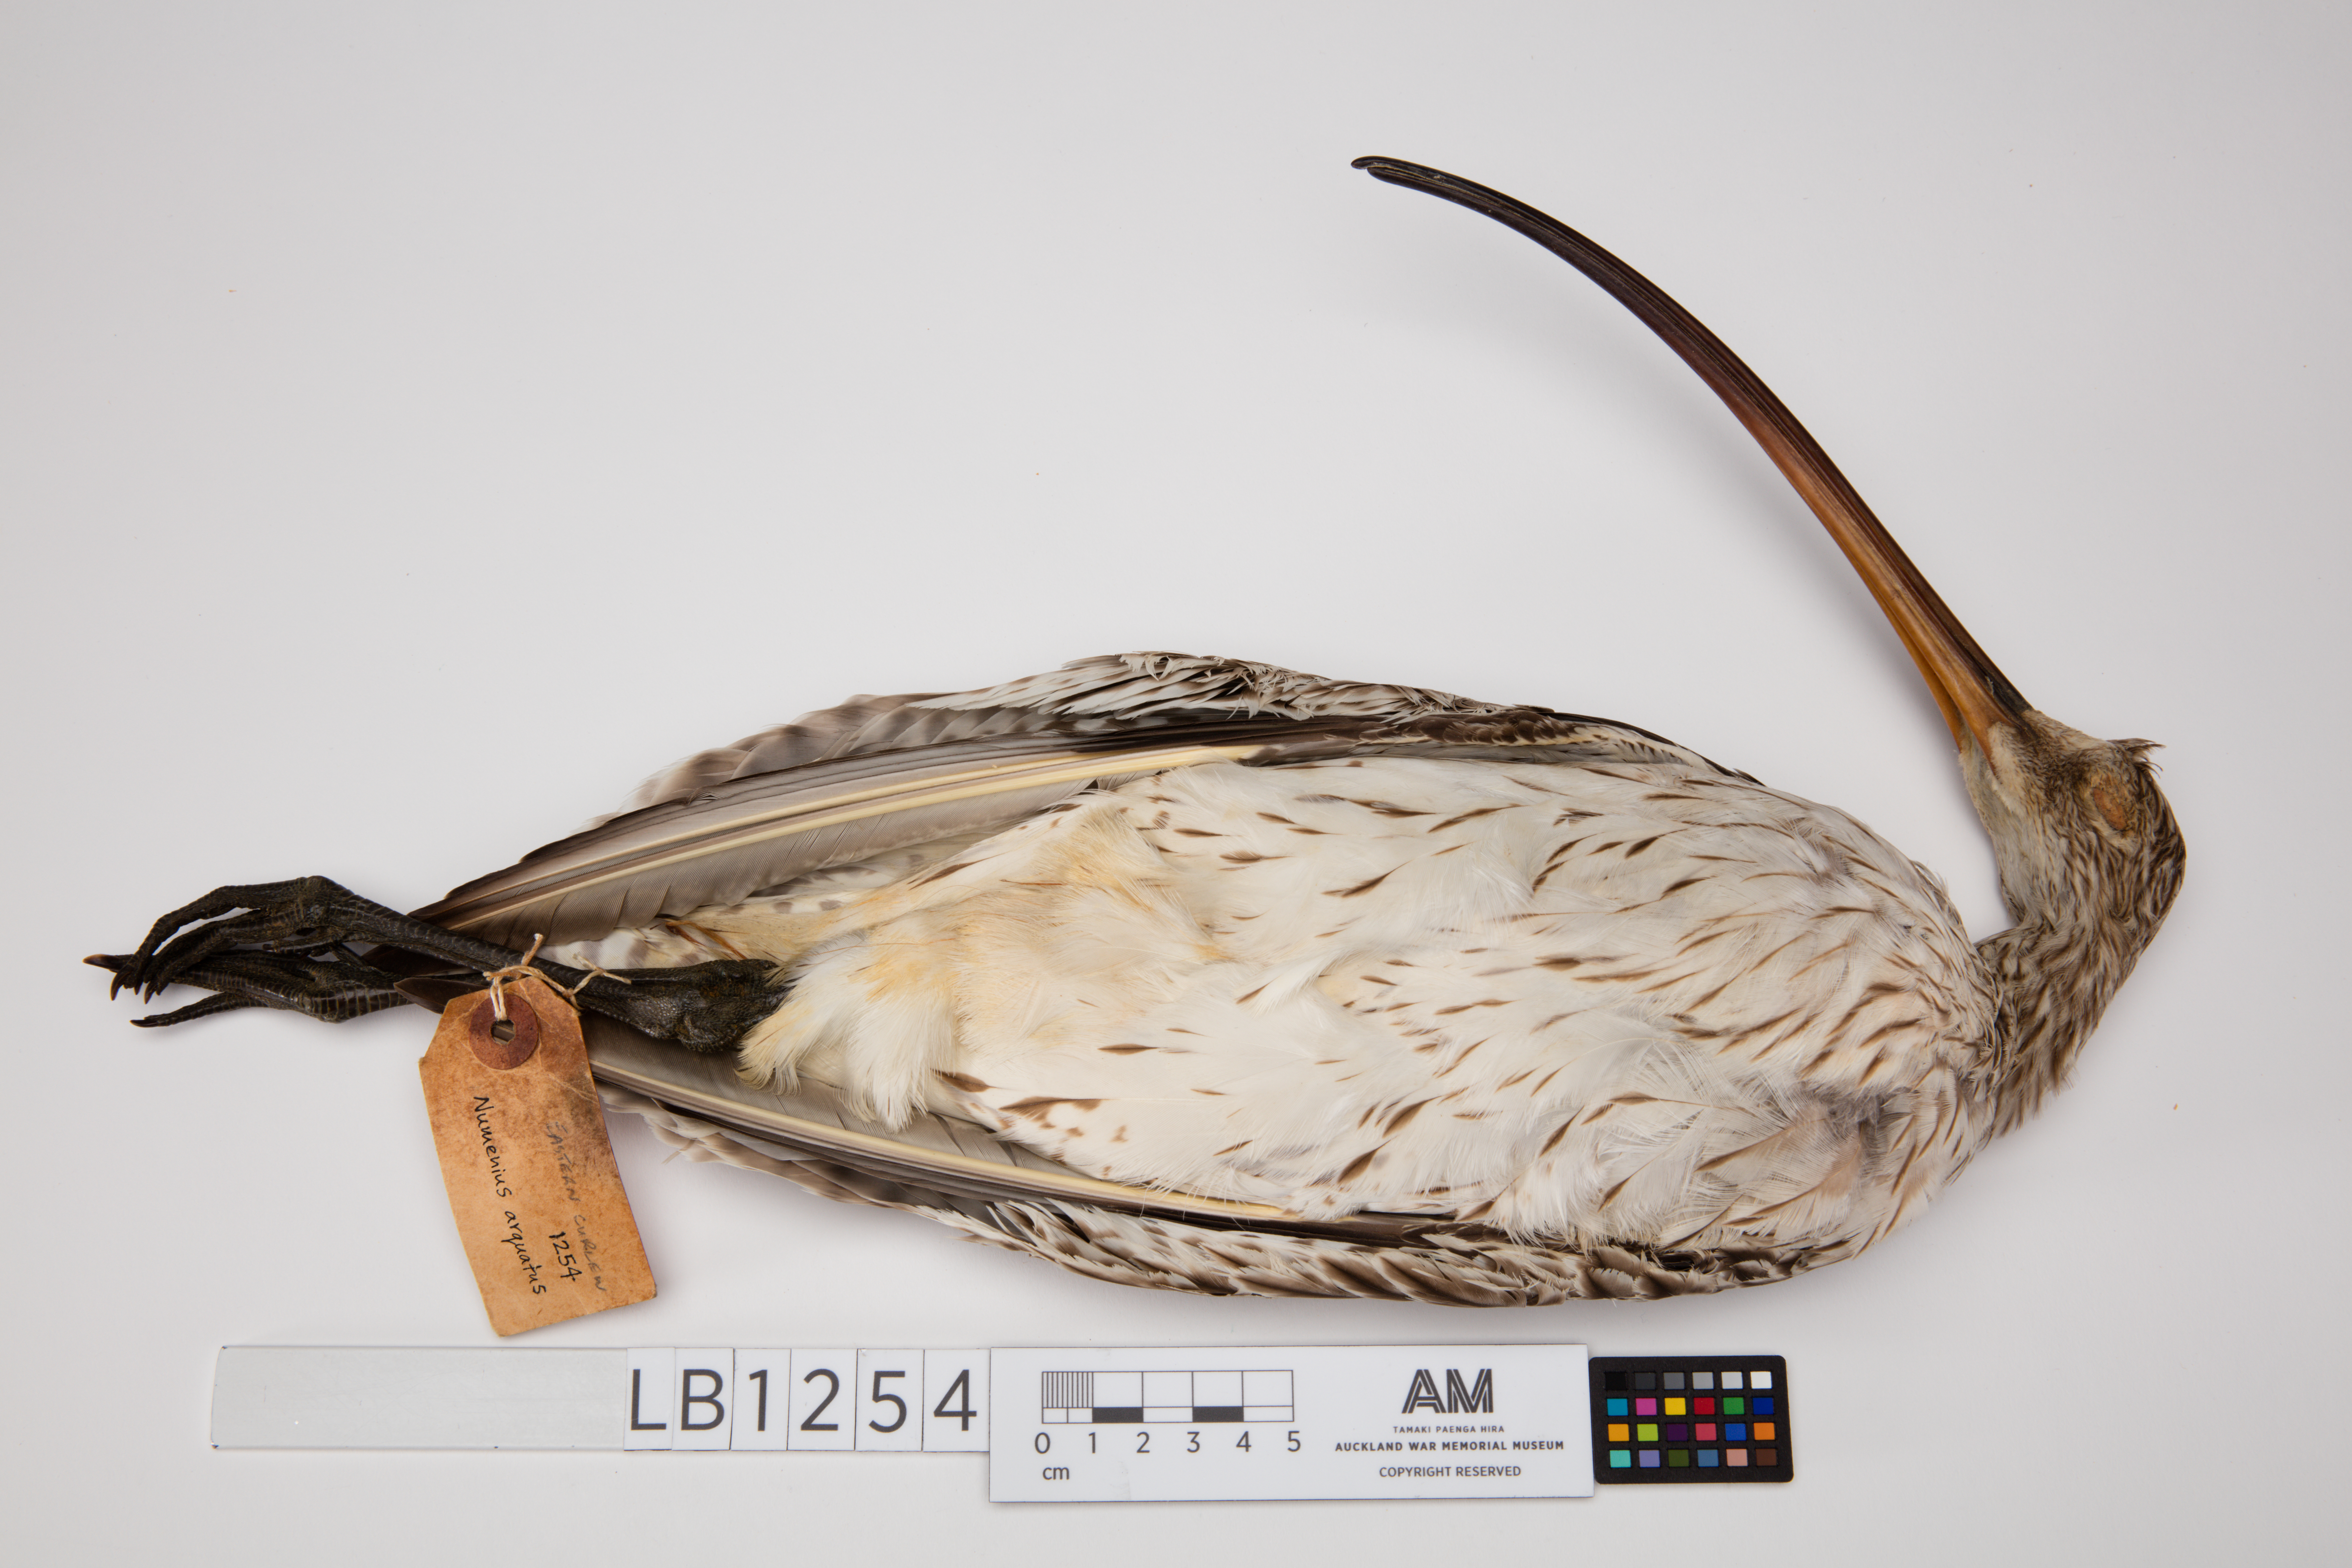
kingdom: Animalia
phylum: Chordata
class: Aves
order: Charadriiformes
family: Scolopacidae
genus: Numenius
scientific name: Numenius arquata
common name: Eurasian curlew
